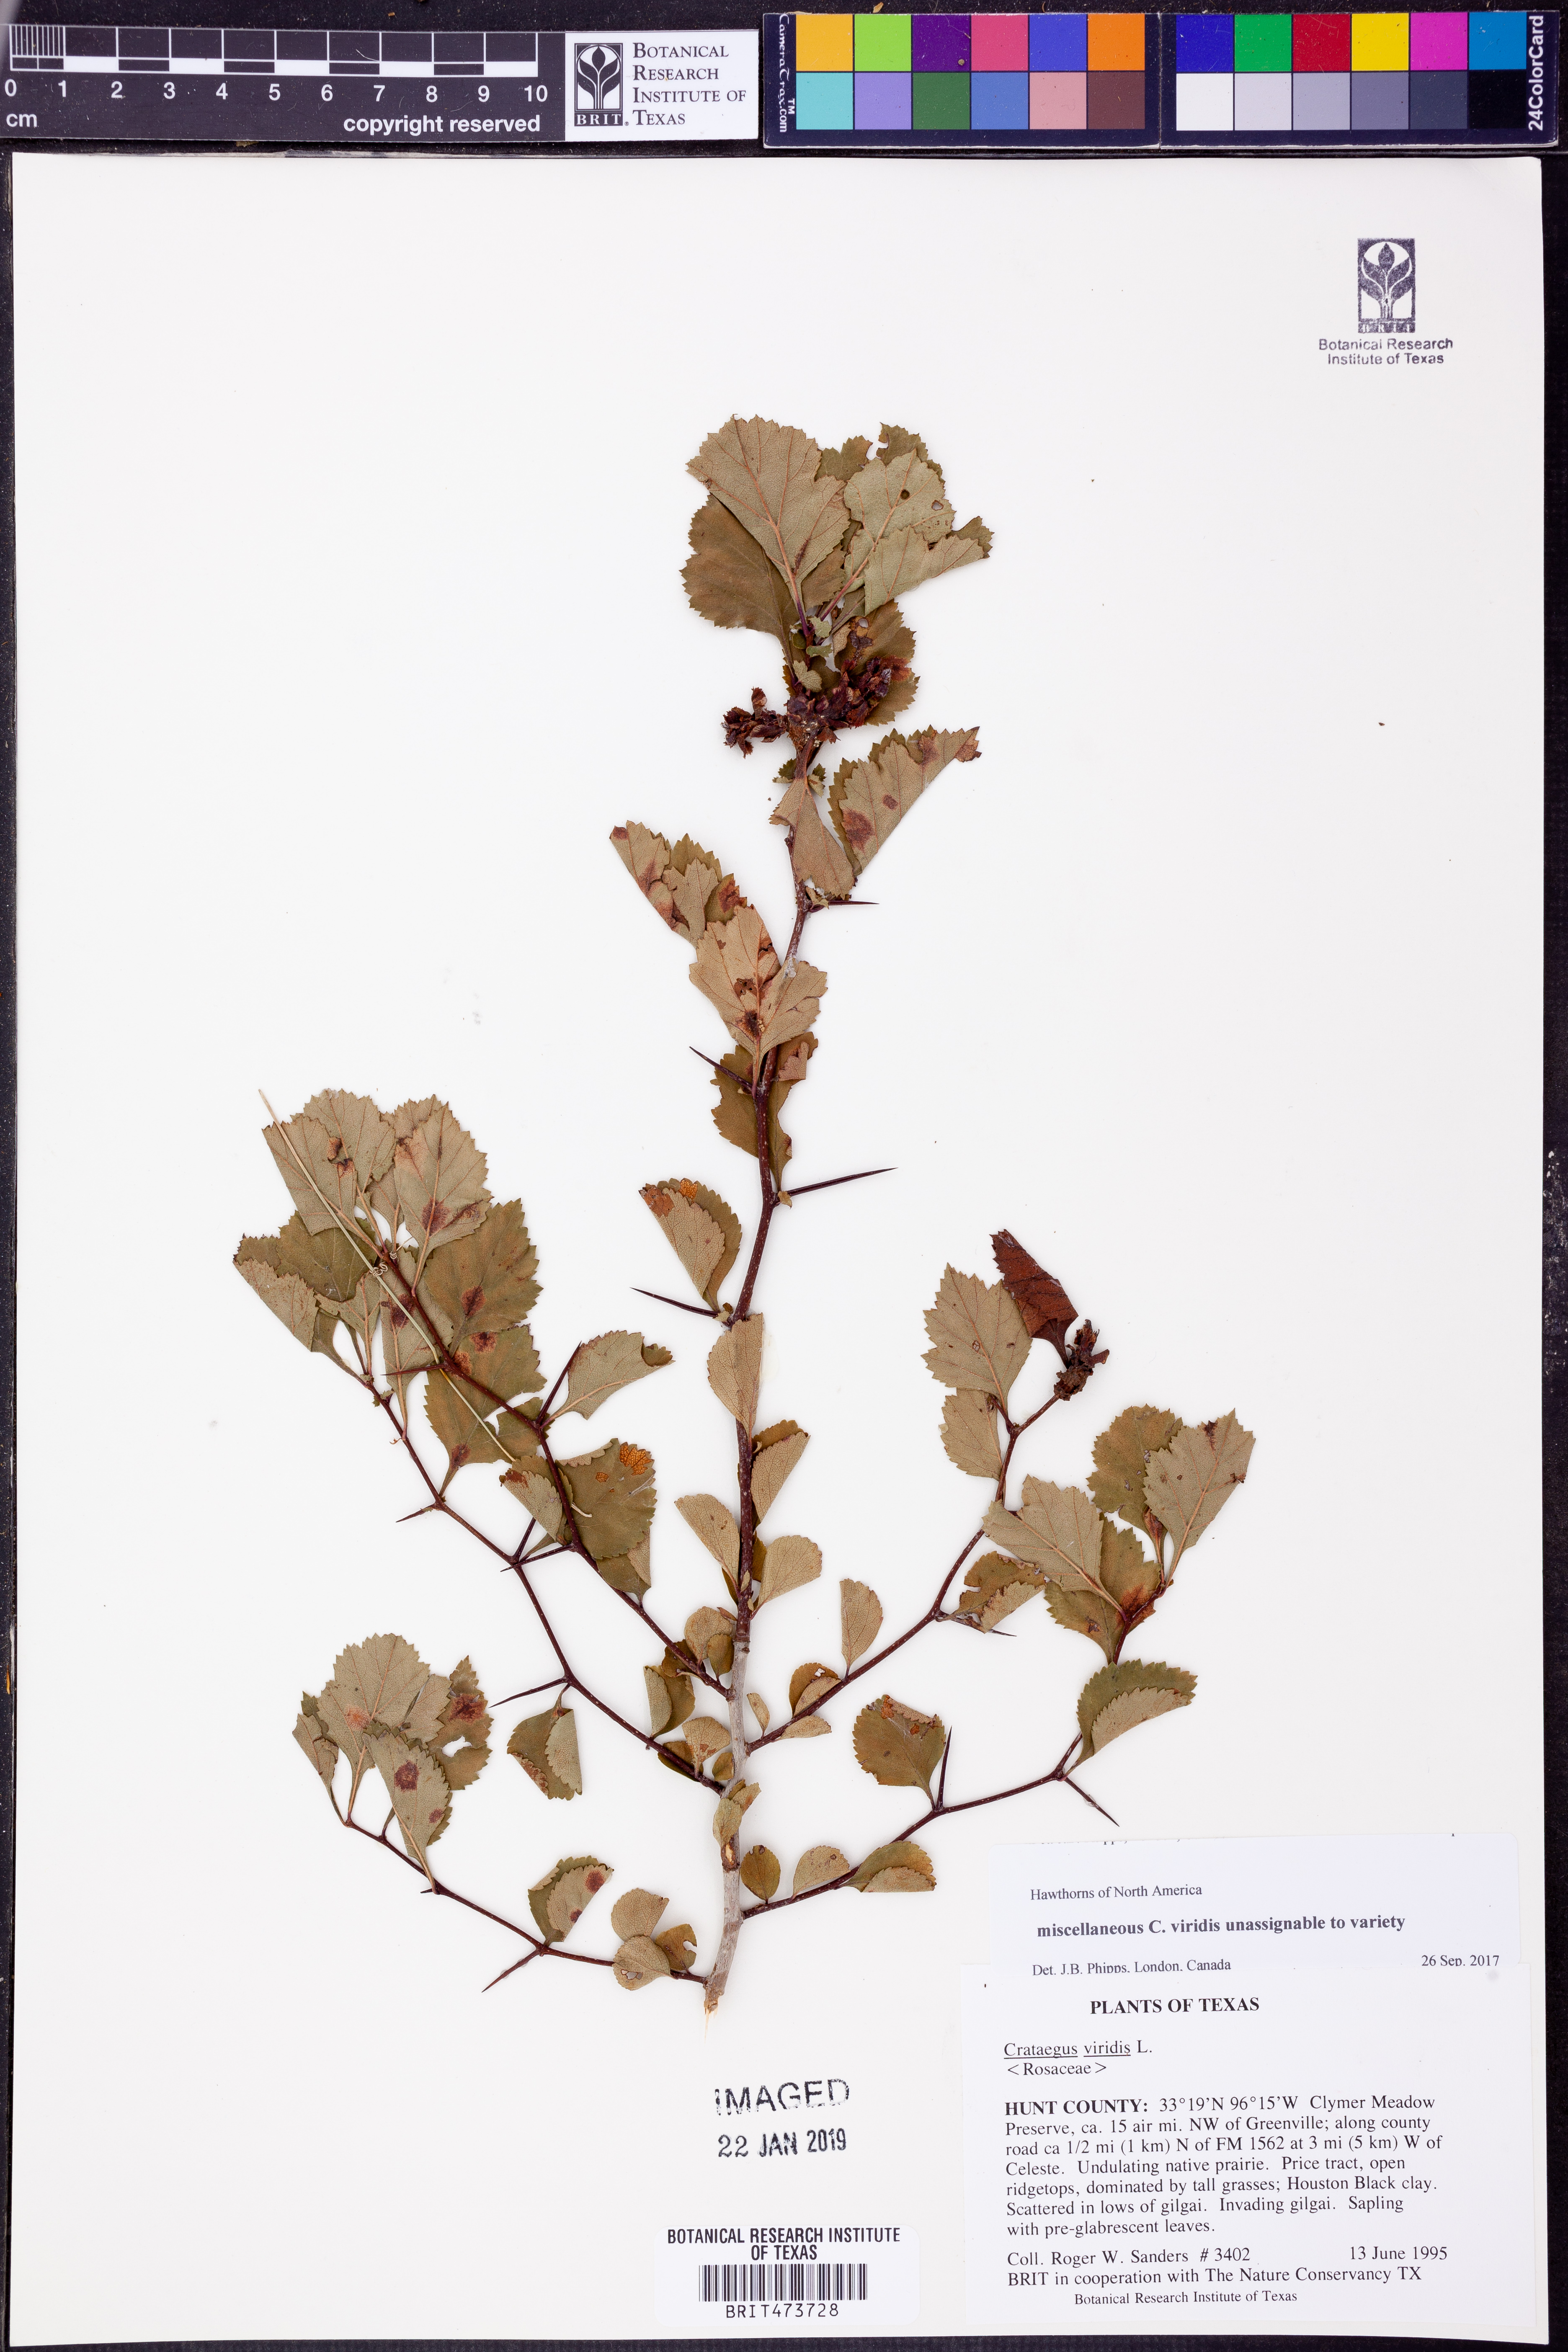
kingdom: Plantae
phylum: Tracheophyta
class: Magnoliopsida
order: Rosales
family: Rosaceae
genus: Crataegus
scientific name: Crataegus viridis
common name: Southernthorn
